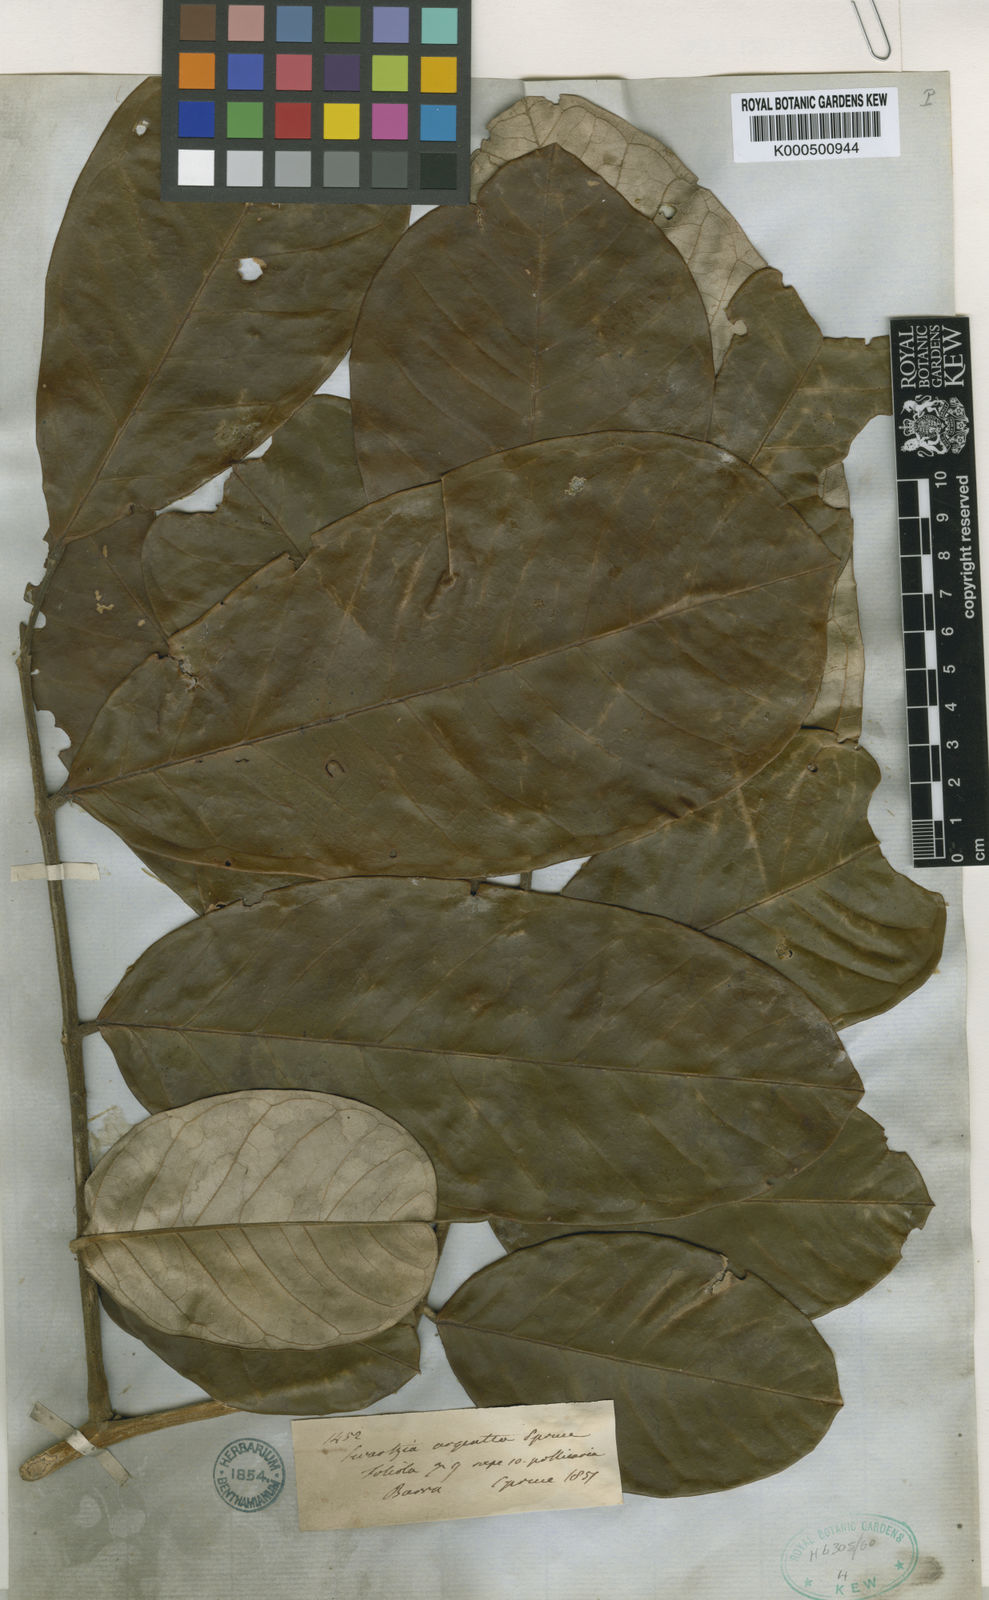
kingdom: Plantae
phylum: Tracheophyta
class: Magnoliopsida
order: Fabales
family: Fabaceae
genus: Swartzia
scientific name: Swartzia argentea
